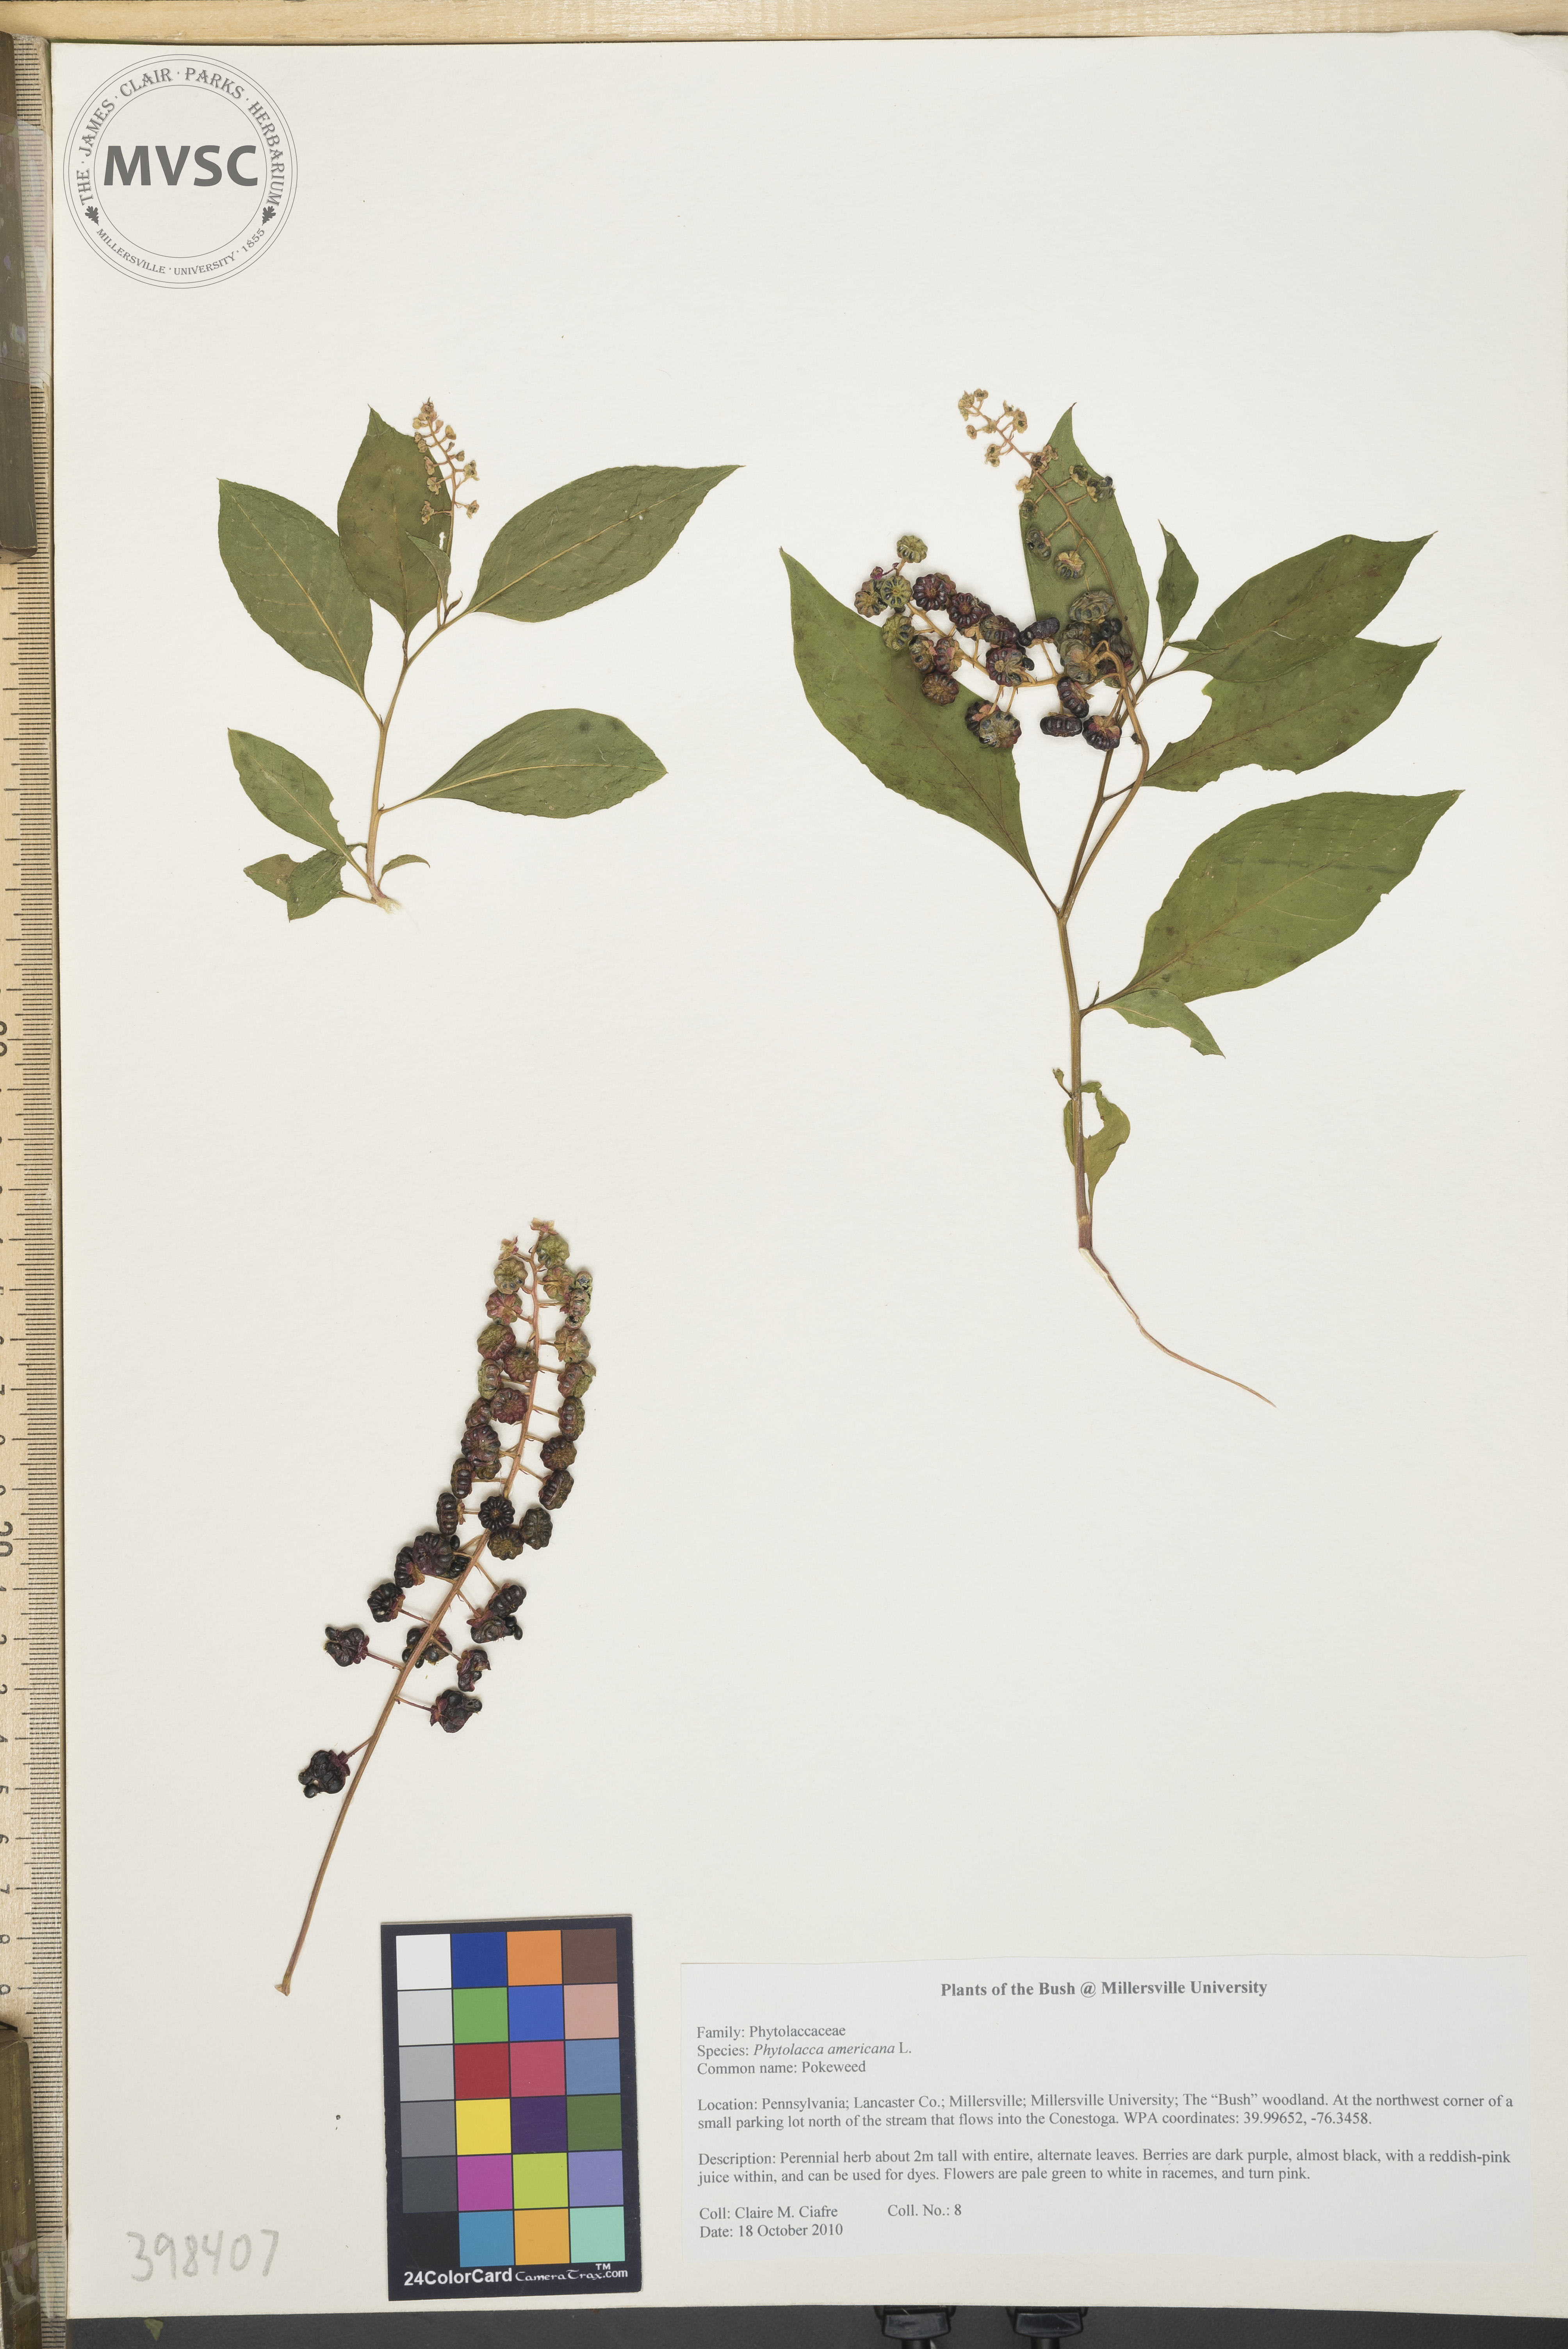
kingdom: Plantae
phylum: Tracheophyta
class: Magnoliopsida
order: Caryophyllales
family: Phytolaccaceae
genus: Phytolacca
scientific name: Phytolacca americana
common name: Pokeweed
